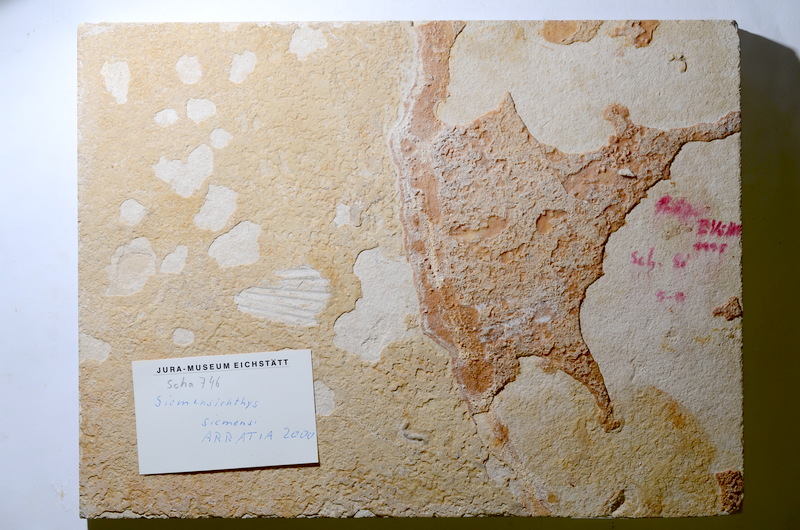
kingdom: Animalia
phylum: Chordata
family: Ankylophoridae
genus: Siemensichthys
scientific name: Siemensichthys siemensi
